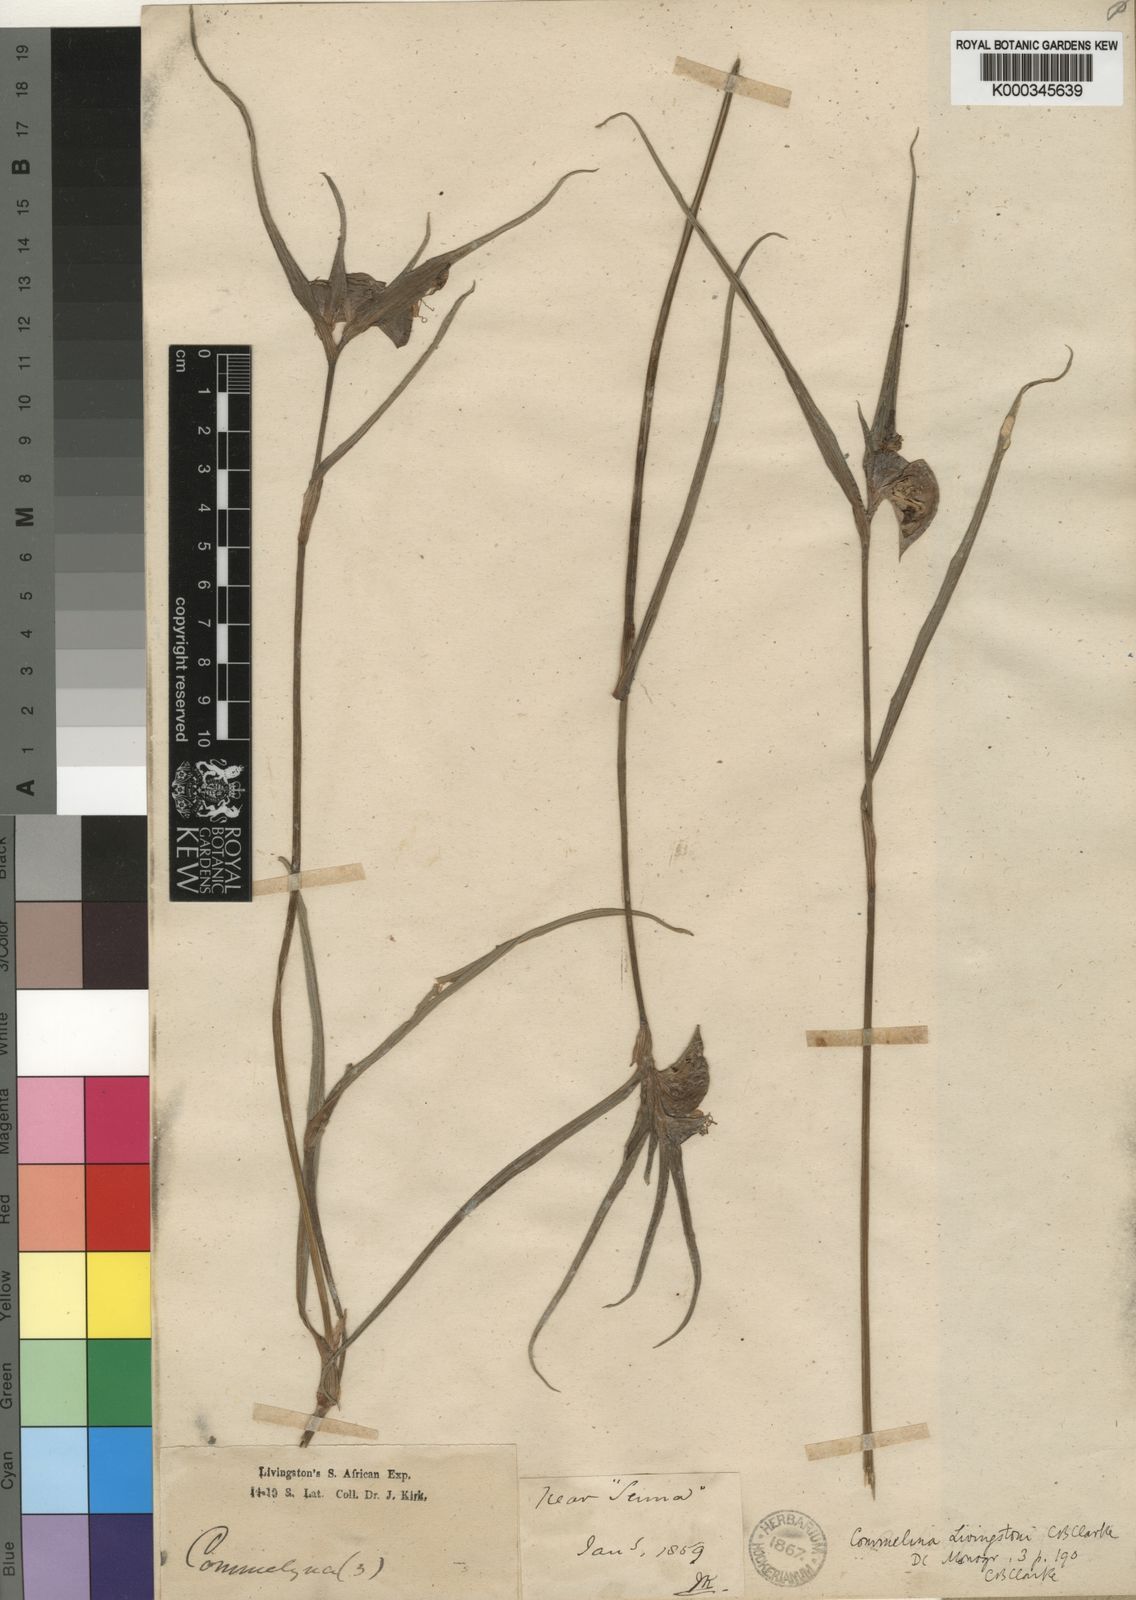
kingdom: Plantae
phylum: Tracheophyta
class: Liliopsida
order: Commelinales
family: Commelinaceae
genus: Commelina
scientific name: Commelina erecta
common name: Blousel blommetjie
